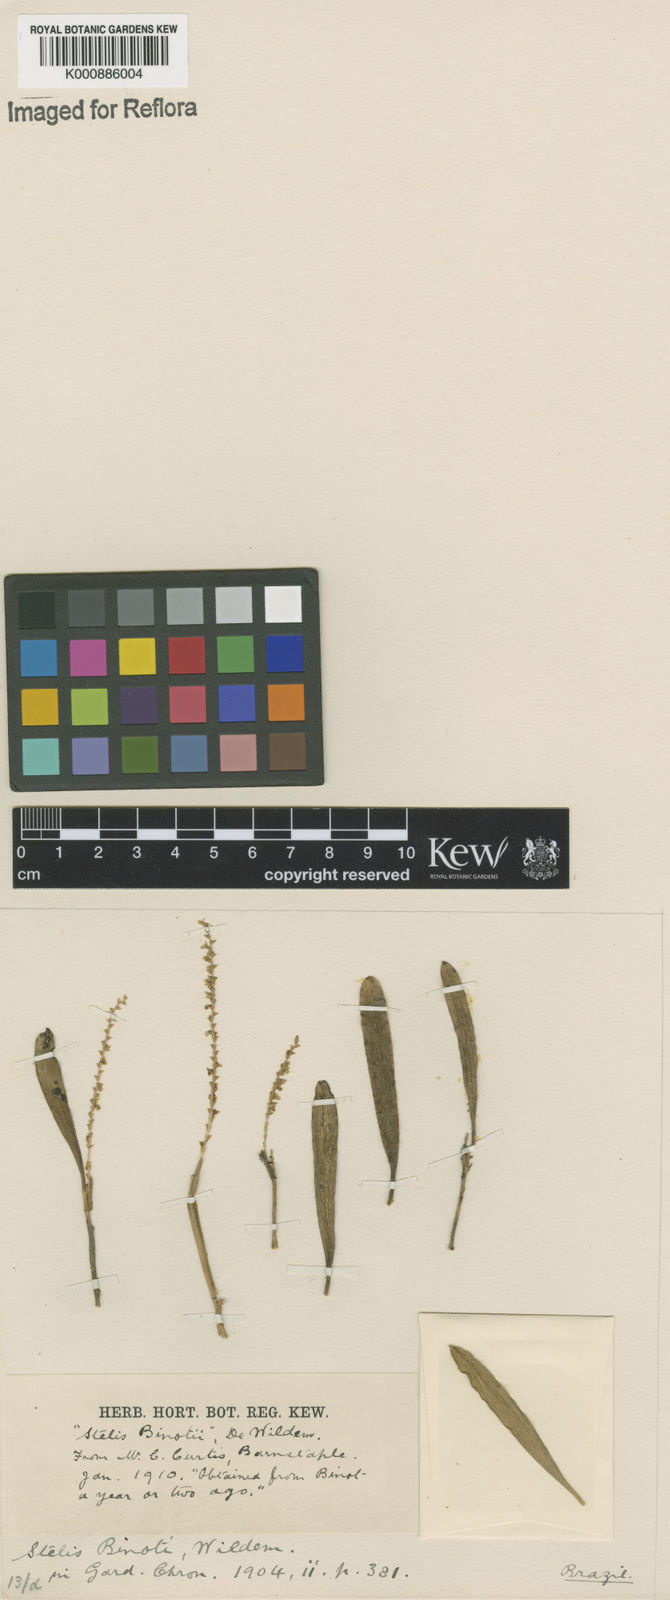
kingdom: Plantae
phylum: Tracheophyta
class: Liliopsida
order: Asparagales
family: Orchidaceae
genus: Stelis
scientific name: Stelis aprica
